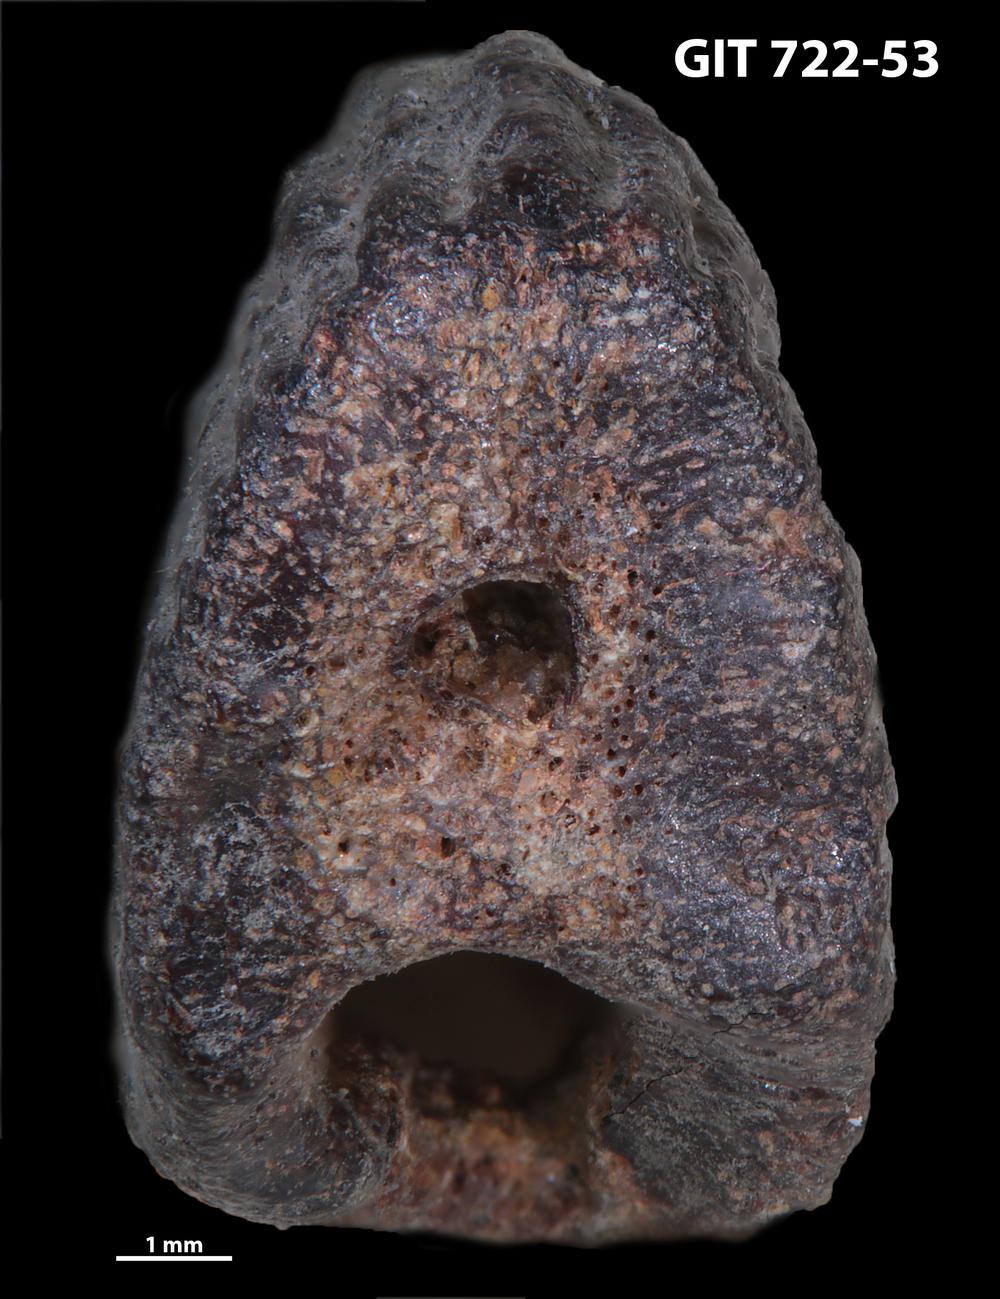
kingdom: Animalia
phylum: Chordata
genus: Devononchus
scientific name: Devononchus concinnus
